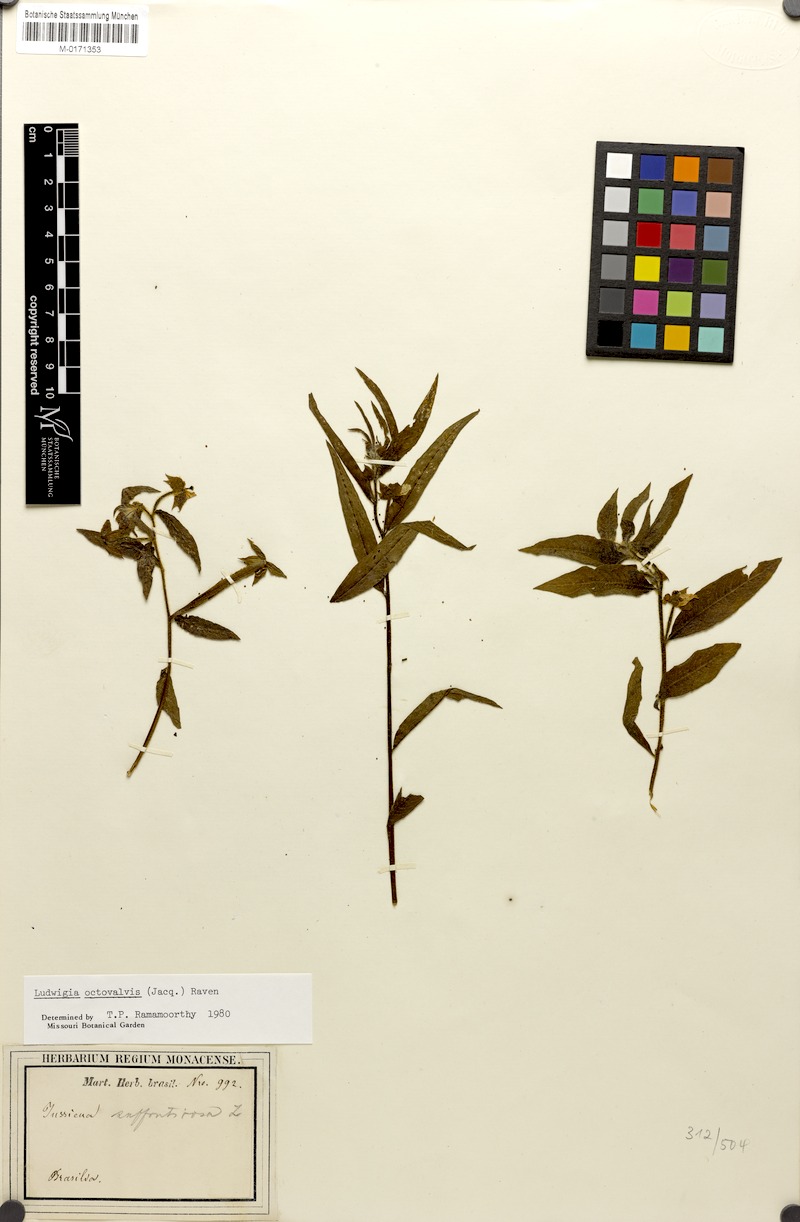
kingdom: Plantae
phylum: Tracheophyta
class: Magnoliopsida
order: Myrtales
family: Onagraceae
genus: Ludwigia
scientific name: Ludwigia octovalvis
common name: Water-primrose
